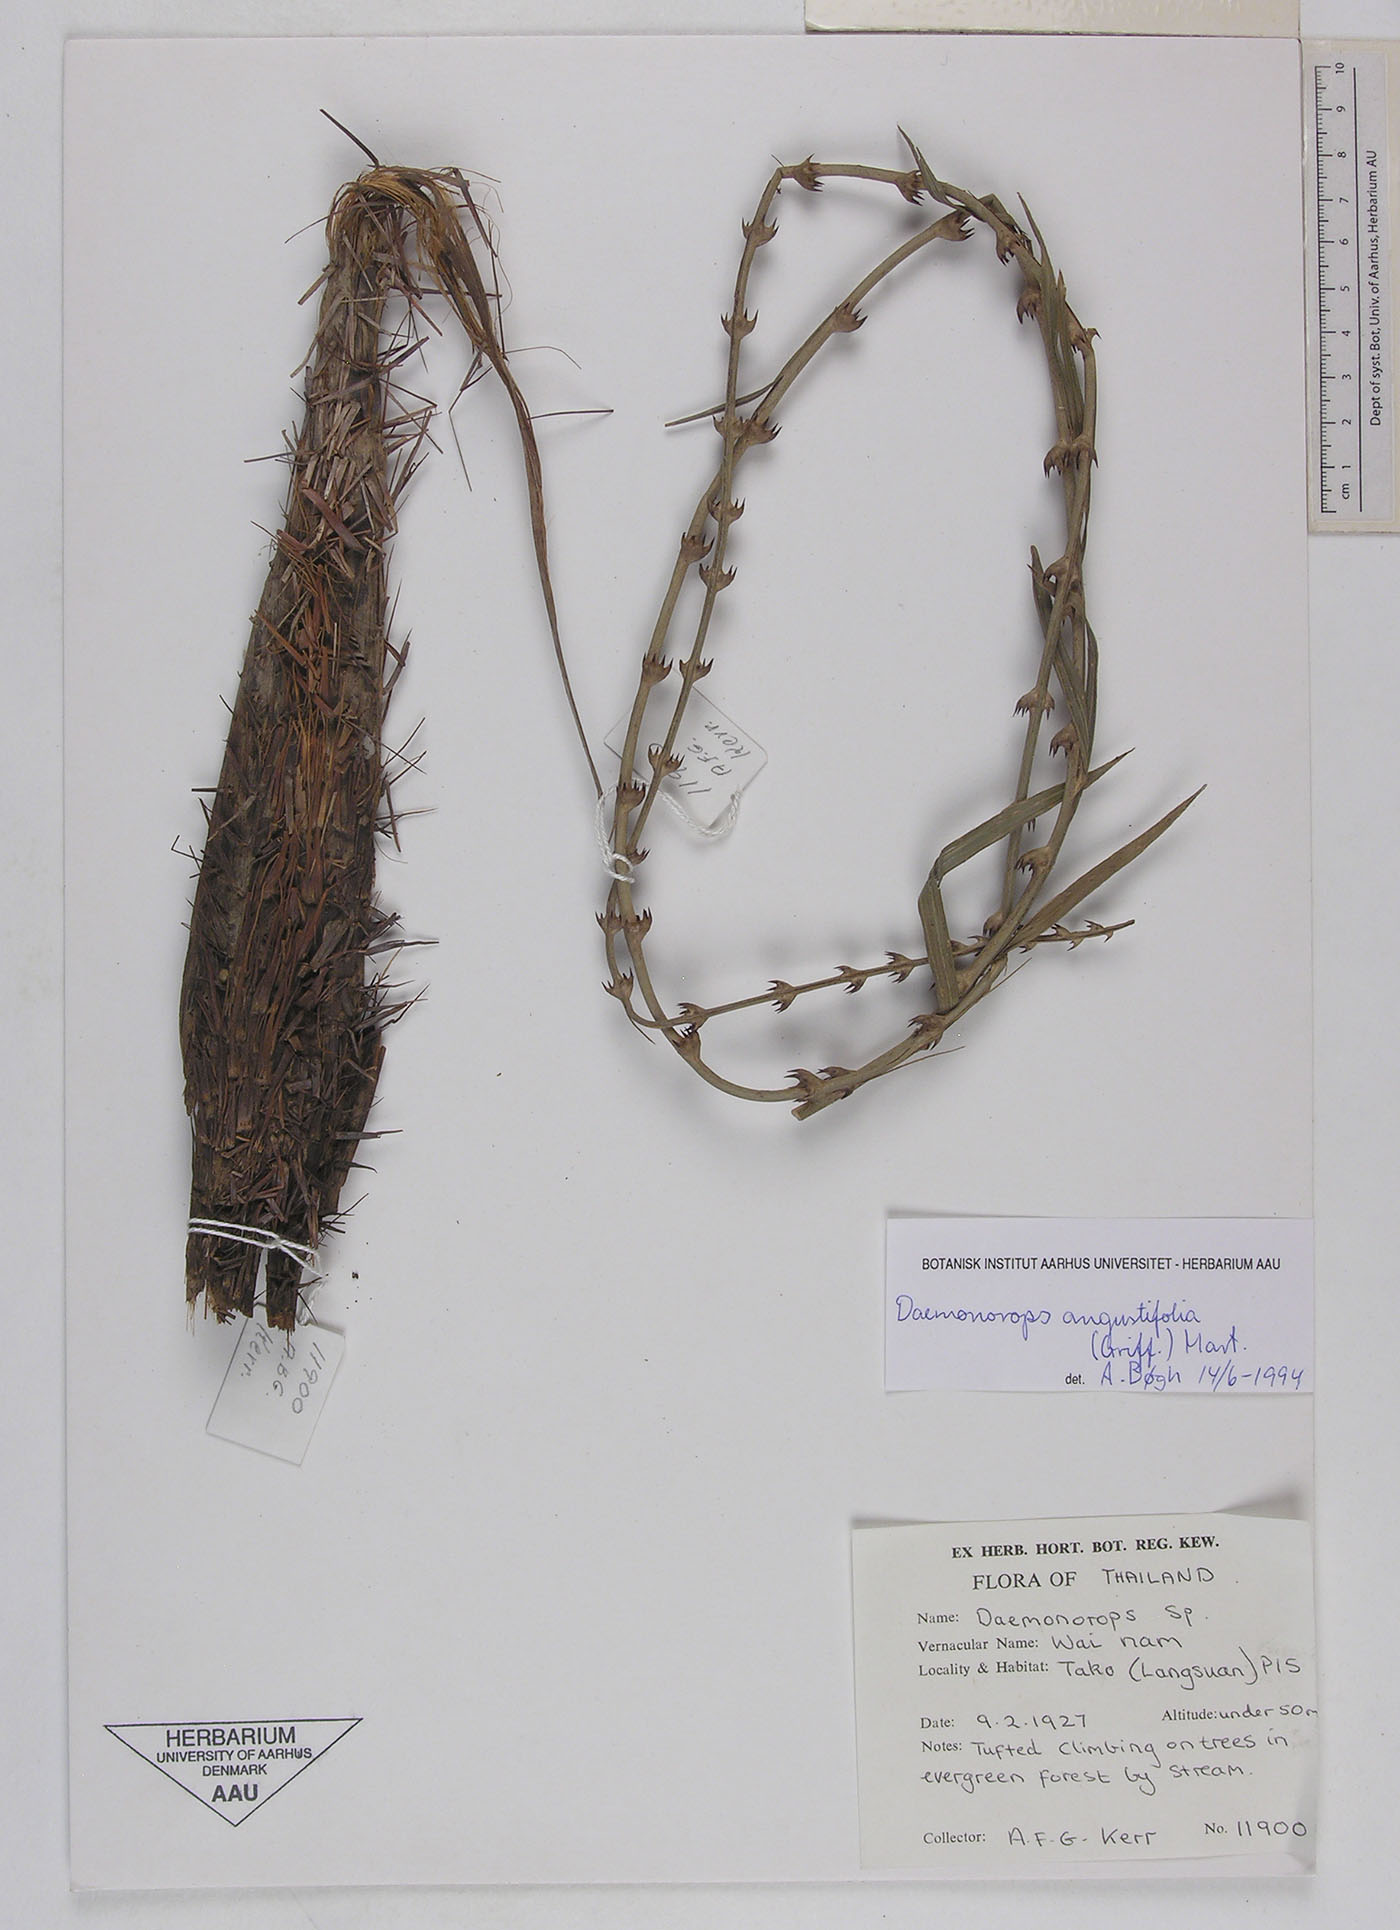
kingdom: Plantae
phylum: Tracheophyta
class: Liliopsida
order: Arecales
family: Arecaceae
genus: Calamus
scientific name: Calamus melanochaetes
